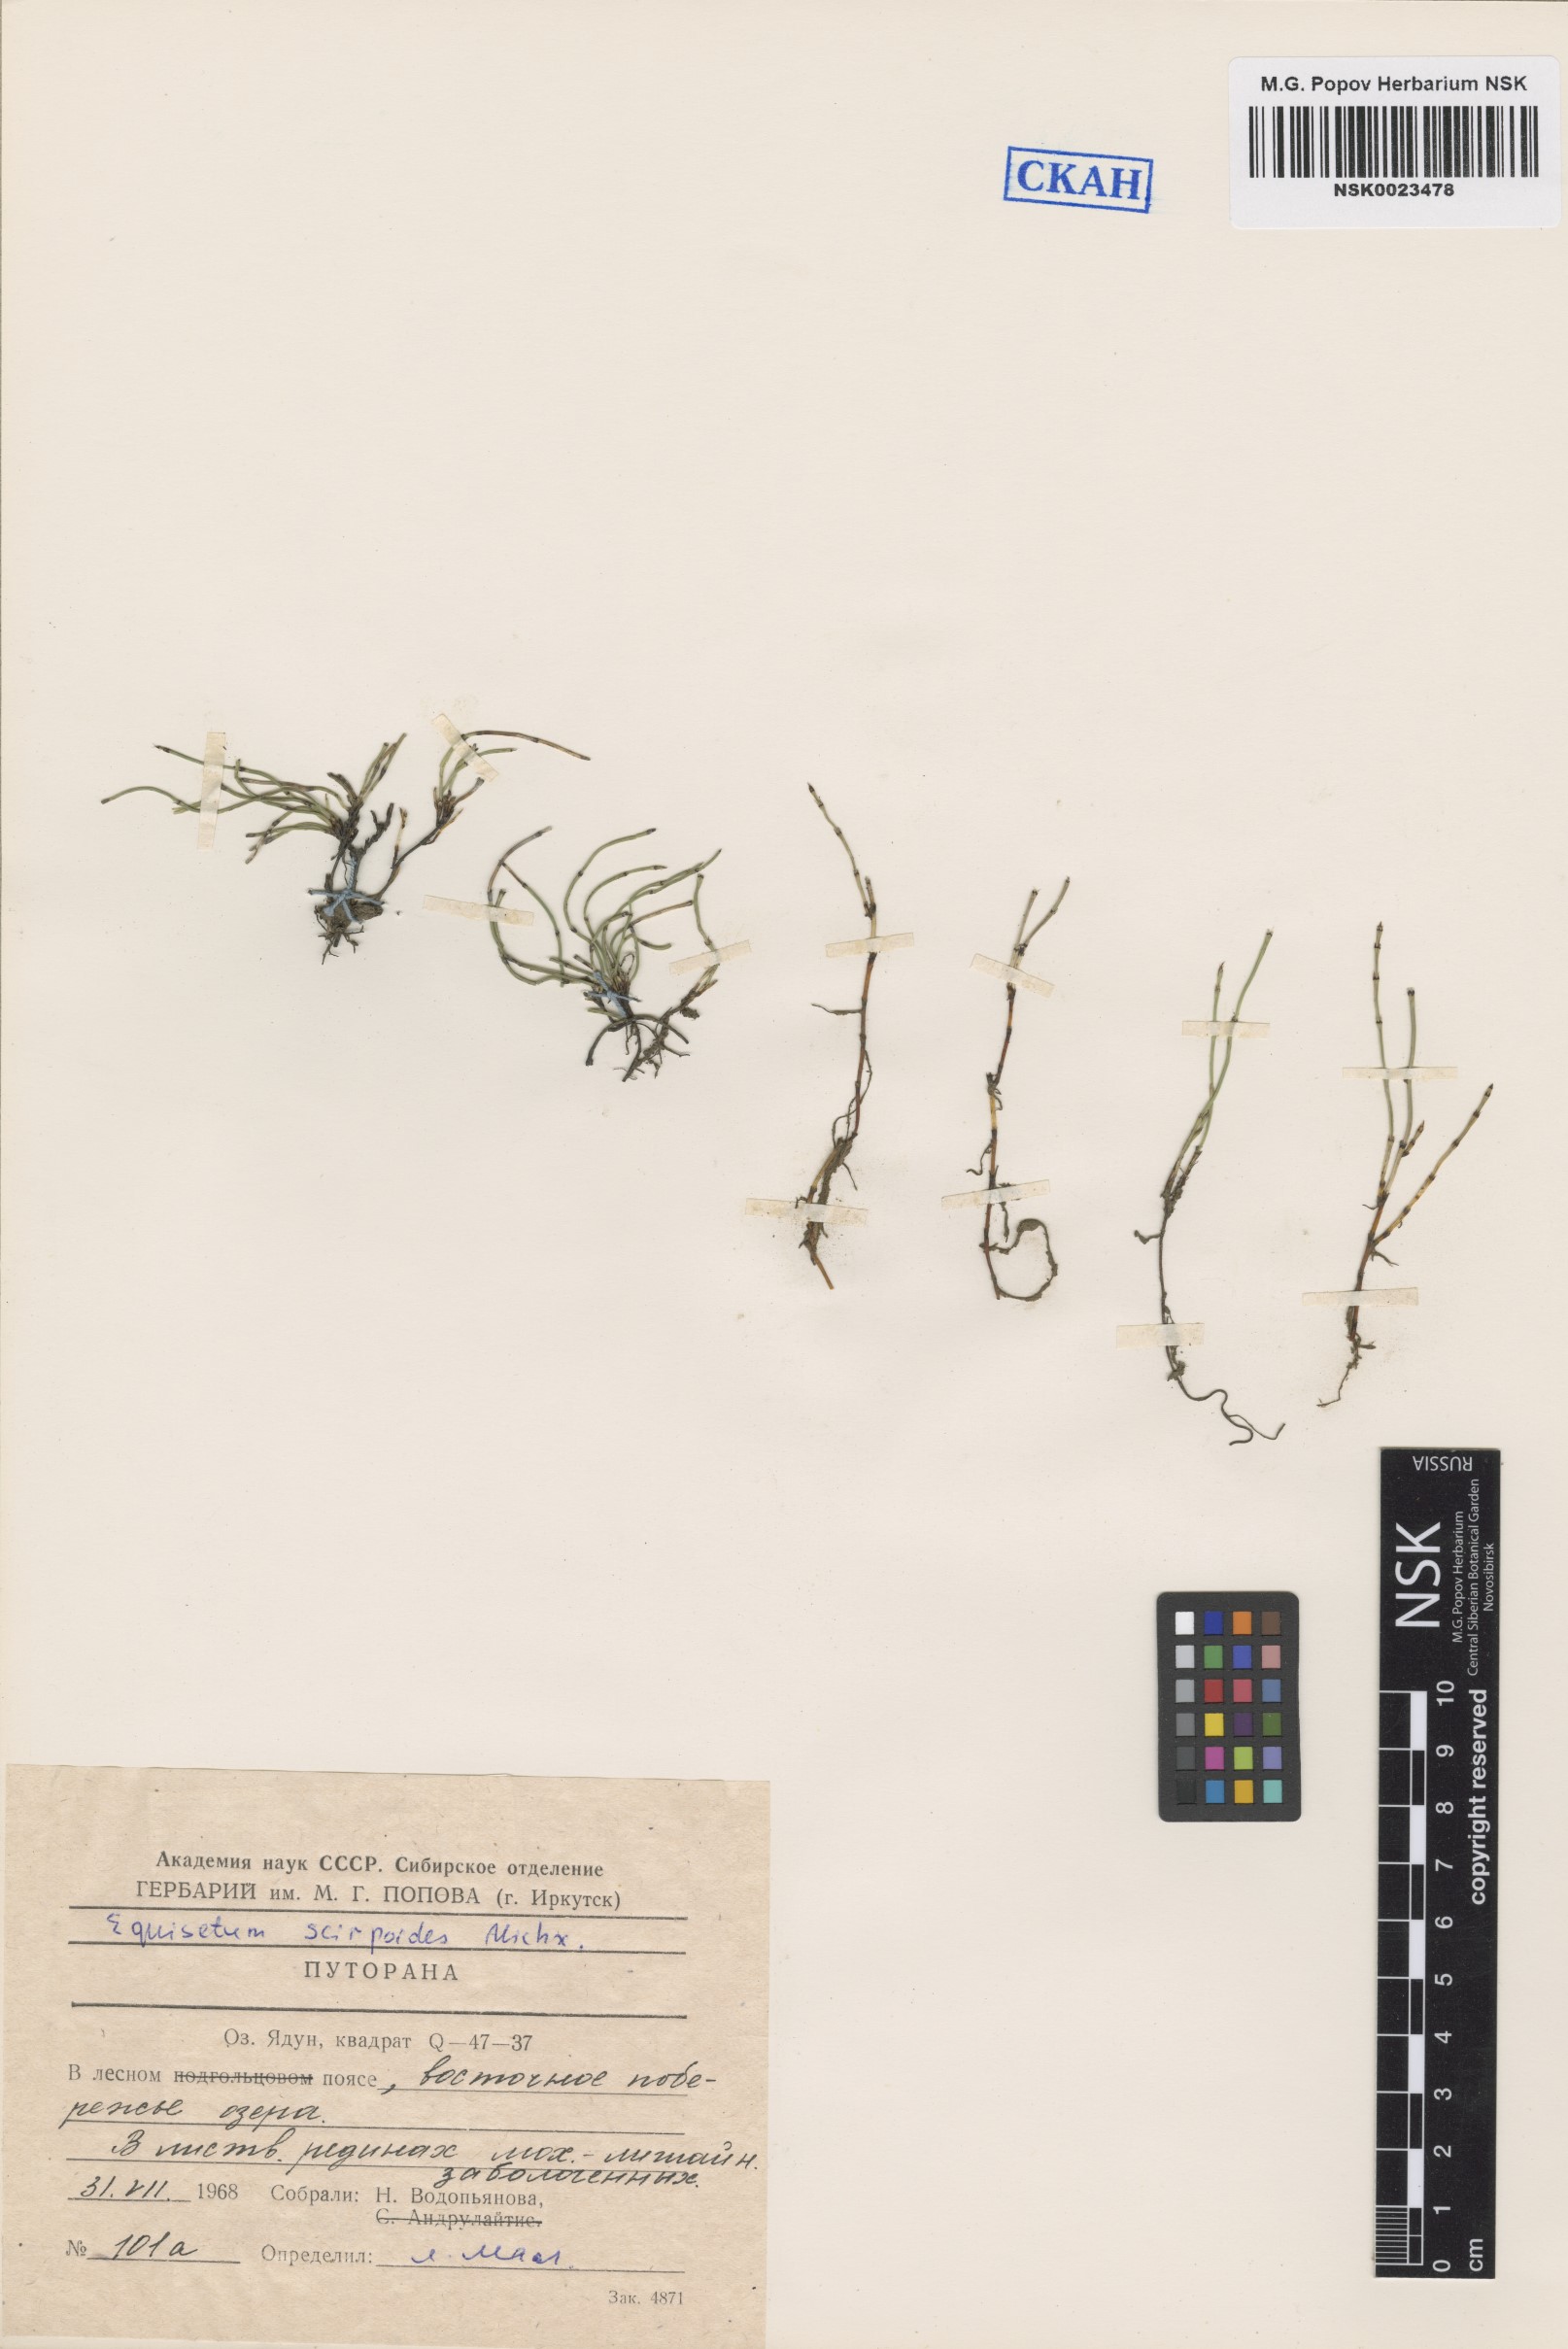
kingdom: Plantae
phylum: Tracheophyta
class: Polypodiopsida
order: Equisetales
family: Equisetaceae
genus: Equisetum
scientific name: Equisetum scirpoides
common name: Delicate horsetail
